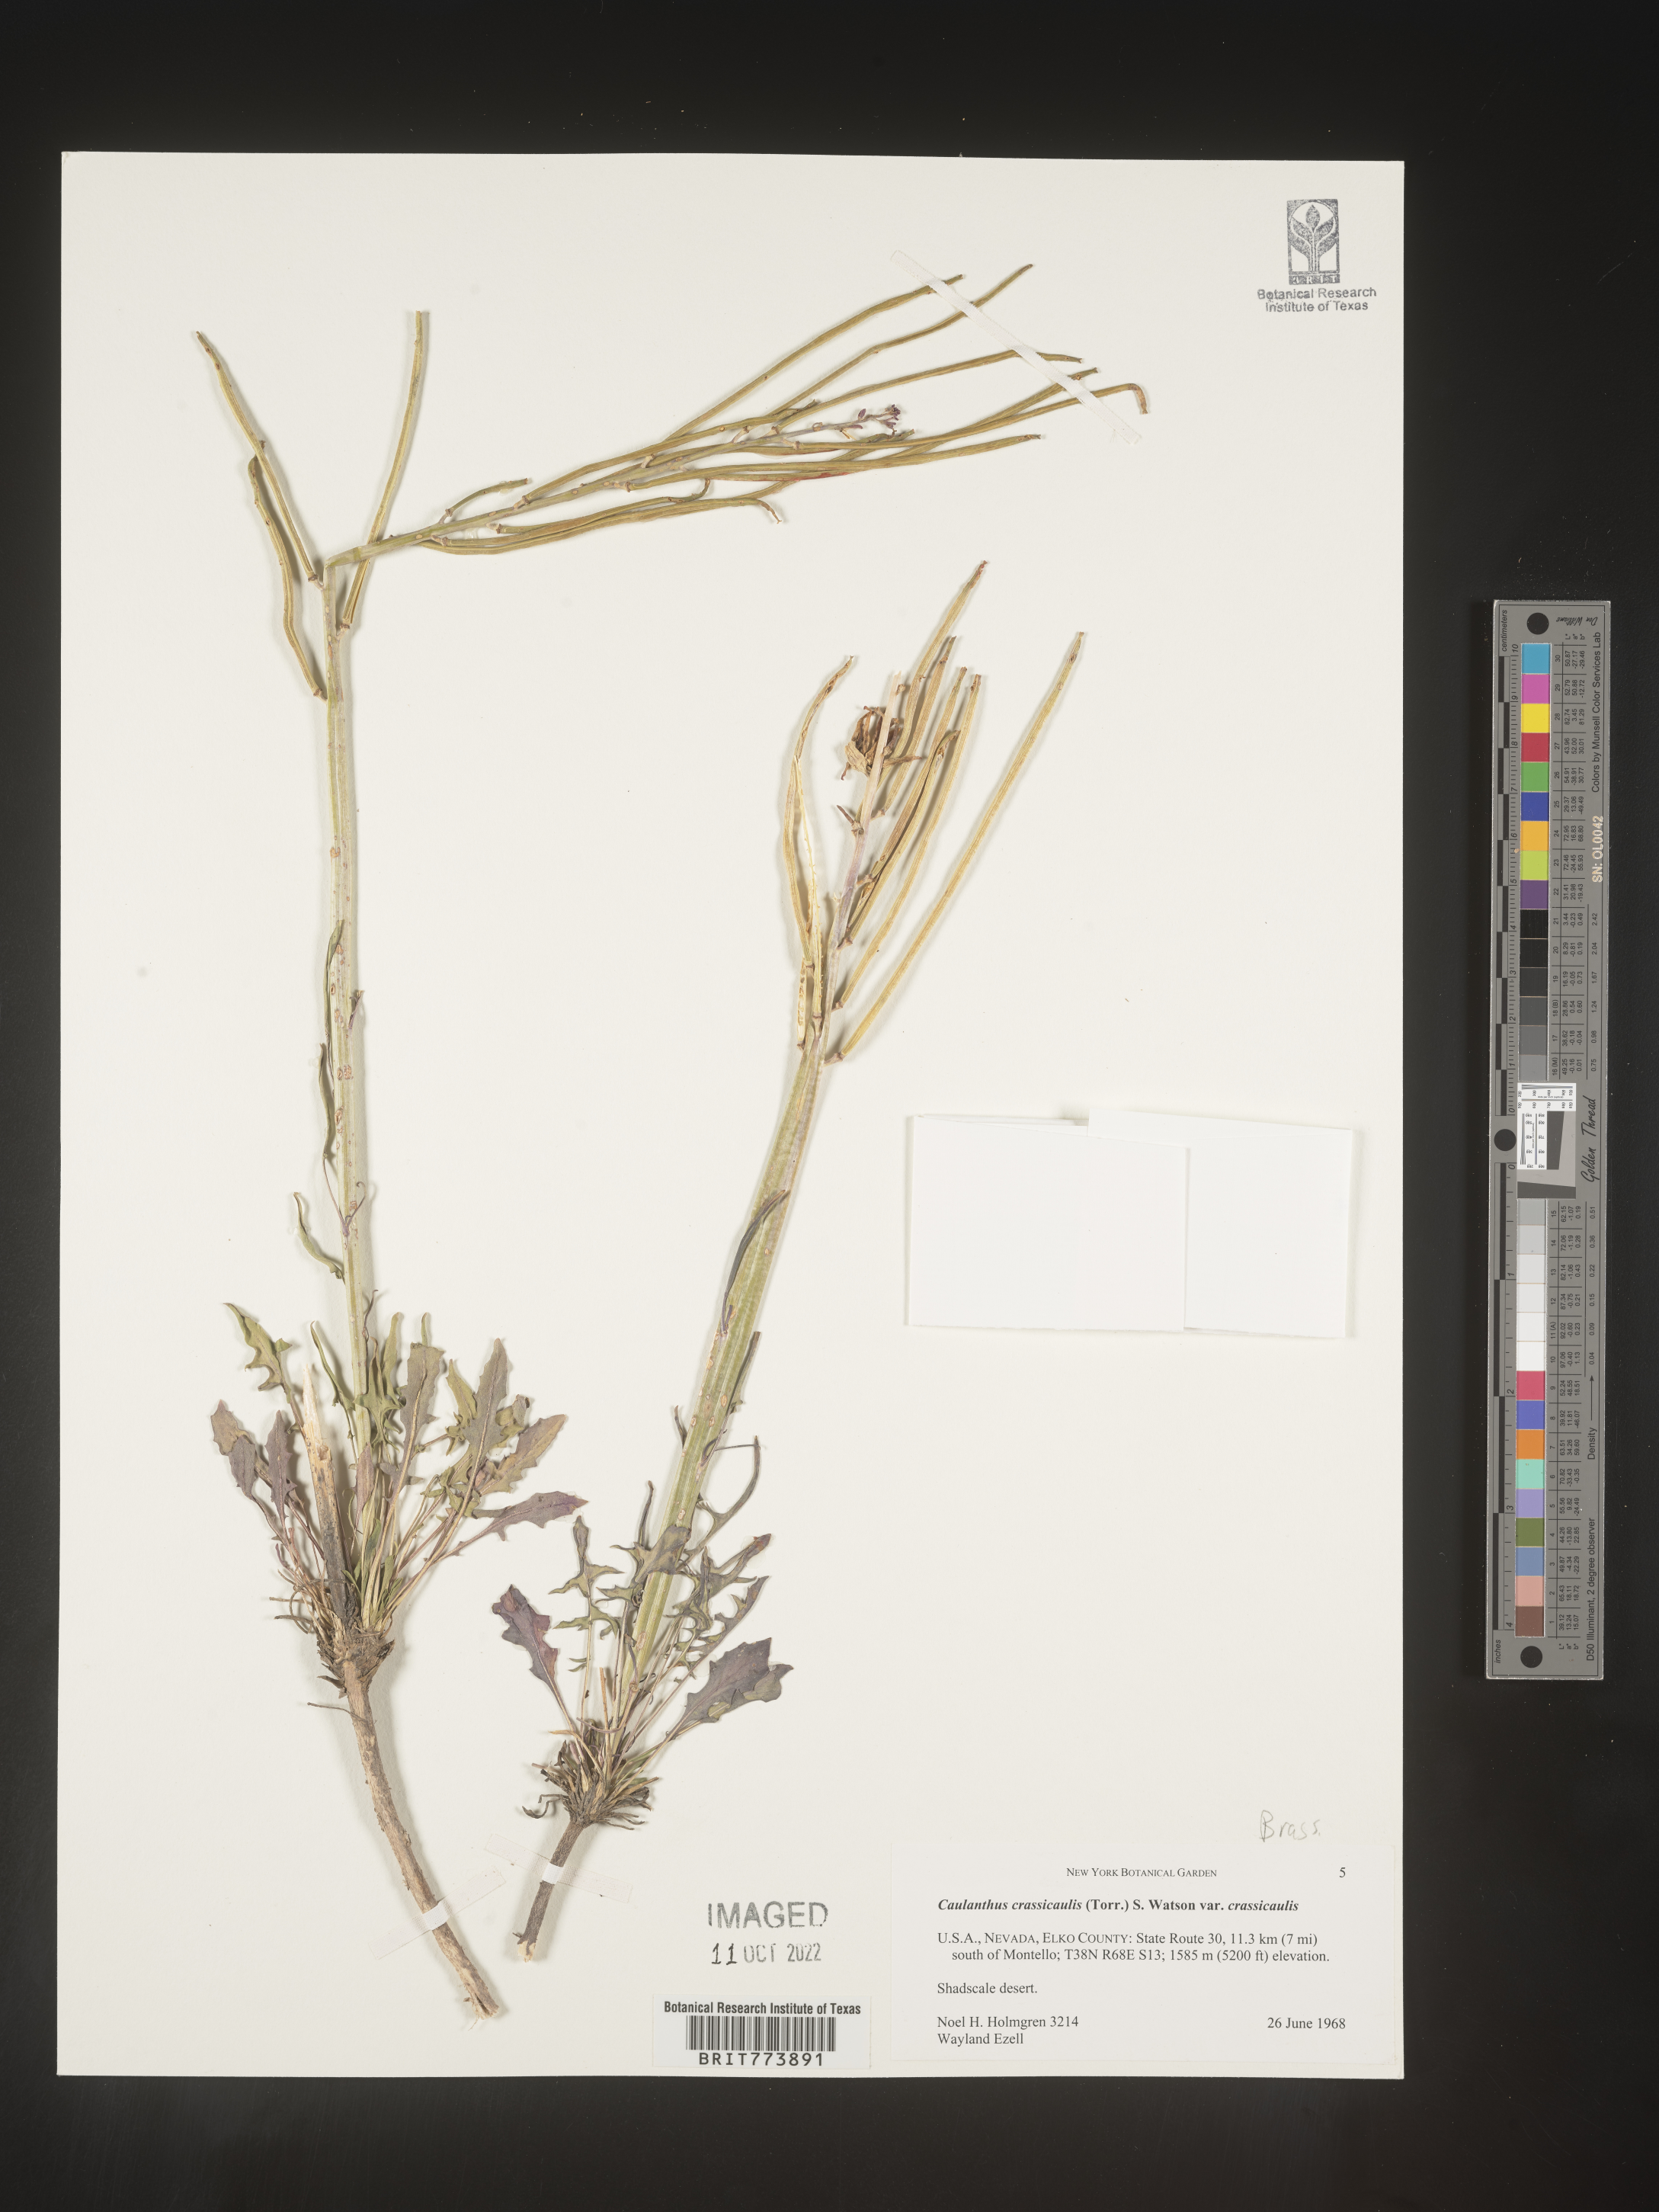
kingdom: Plantae
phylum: Tracheophyta
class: Magnoliopsida
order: Brassicales
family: Brassicaceae
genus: Streptanthus
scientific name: Streptanthus
